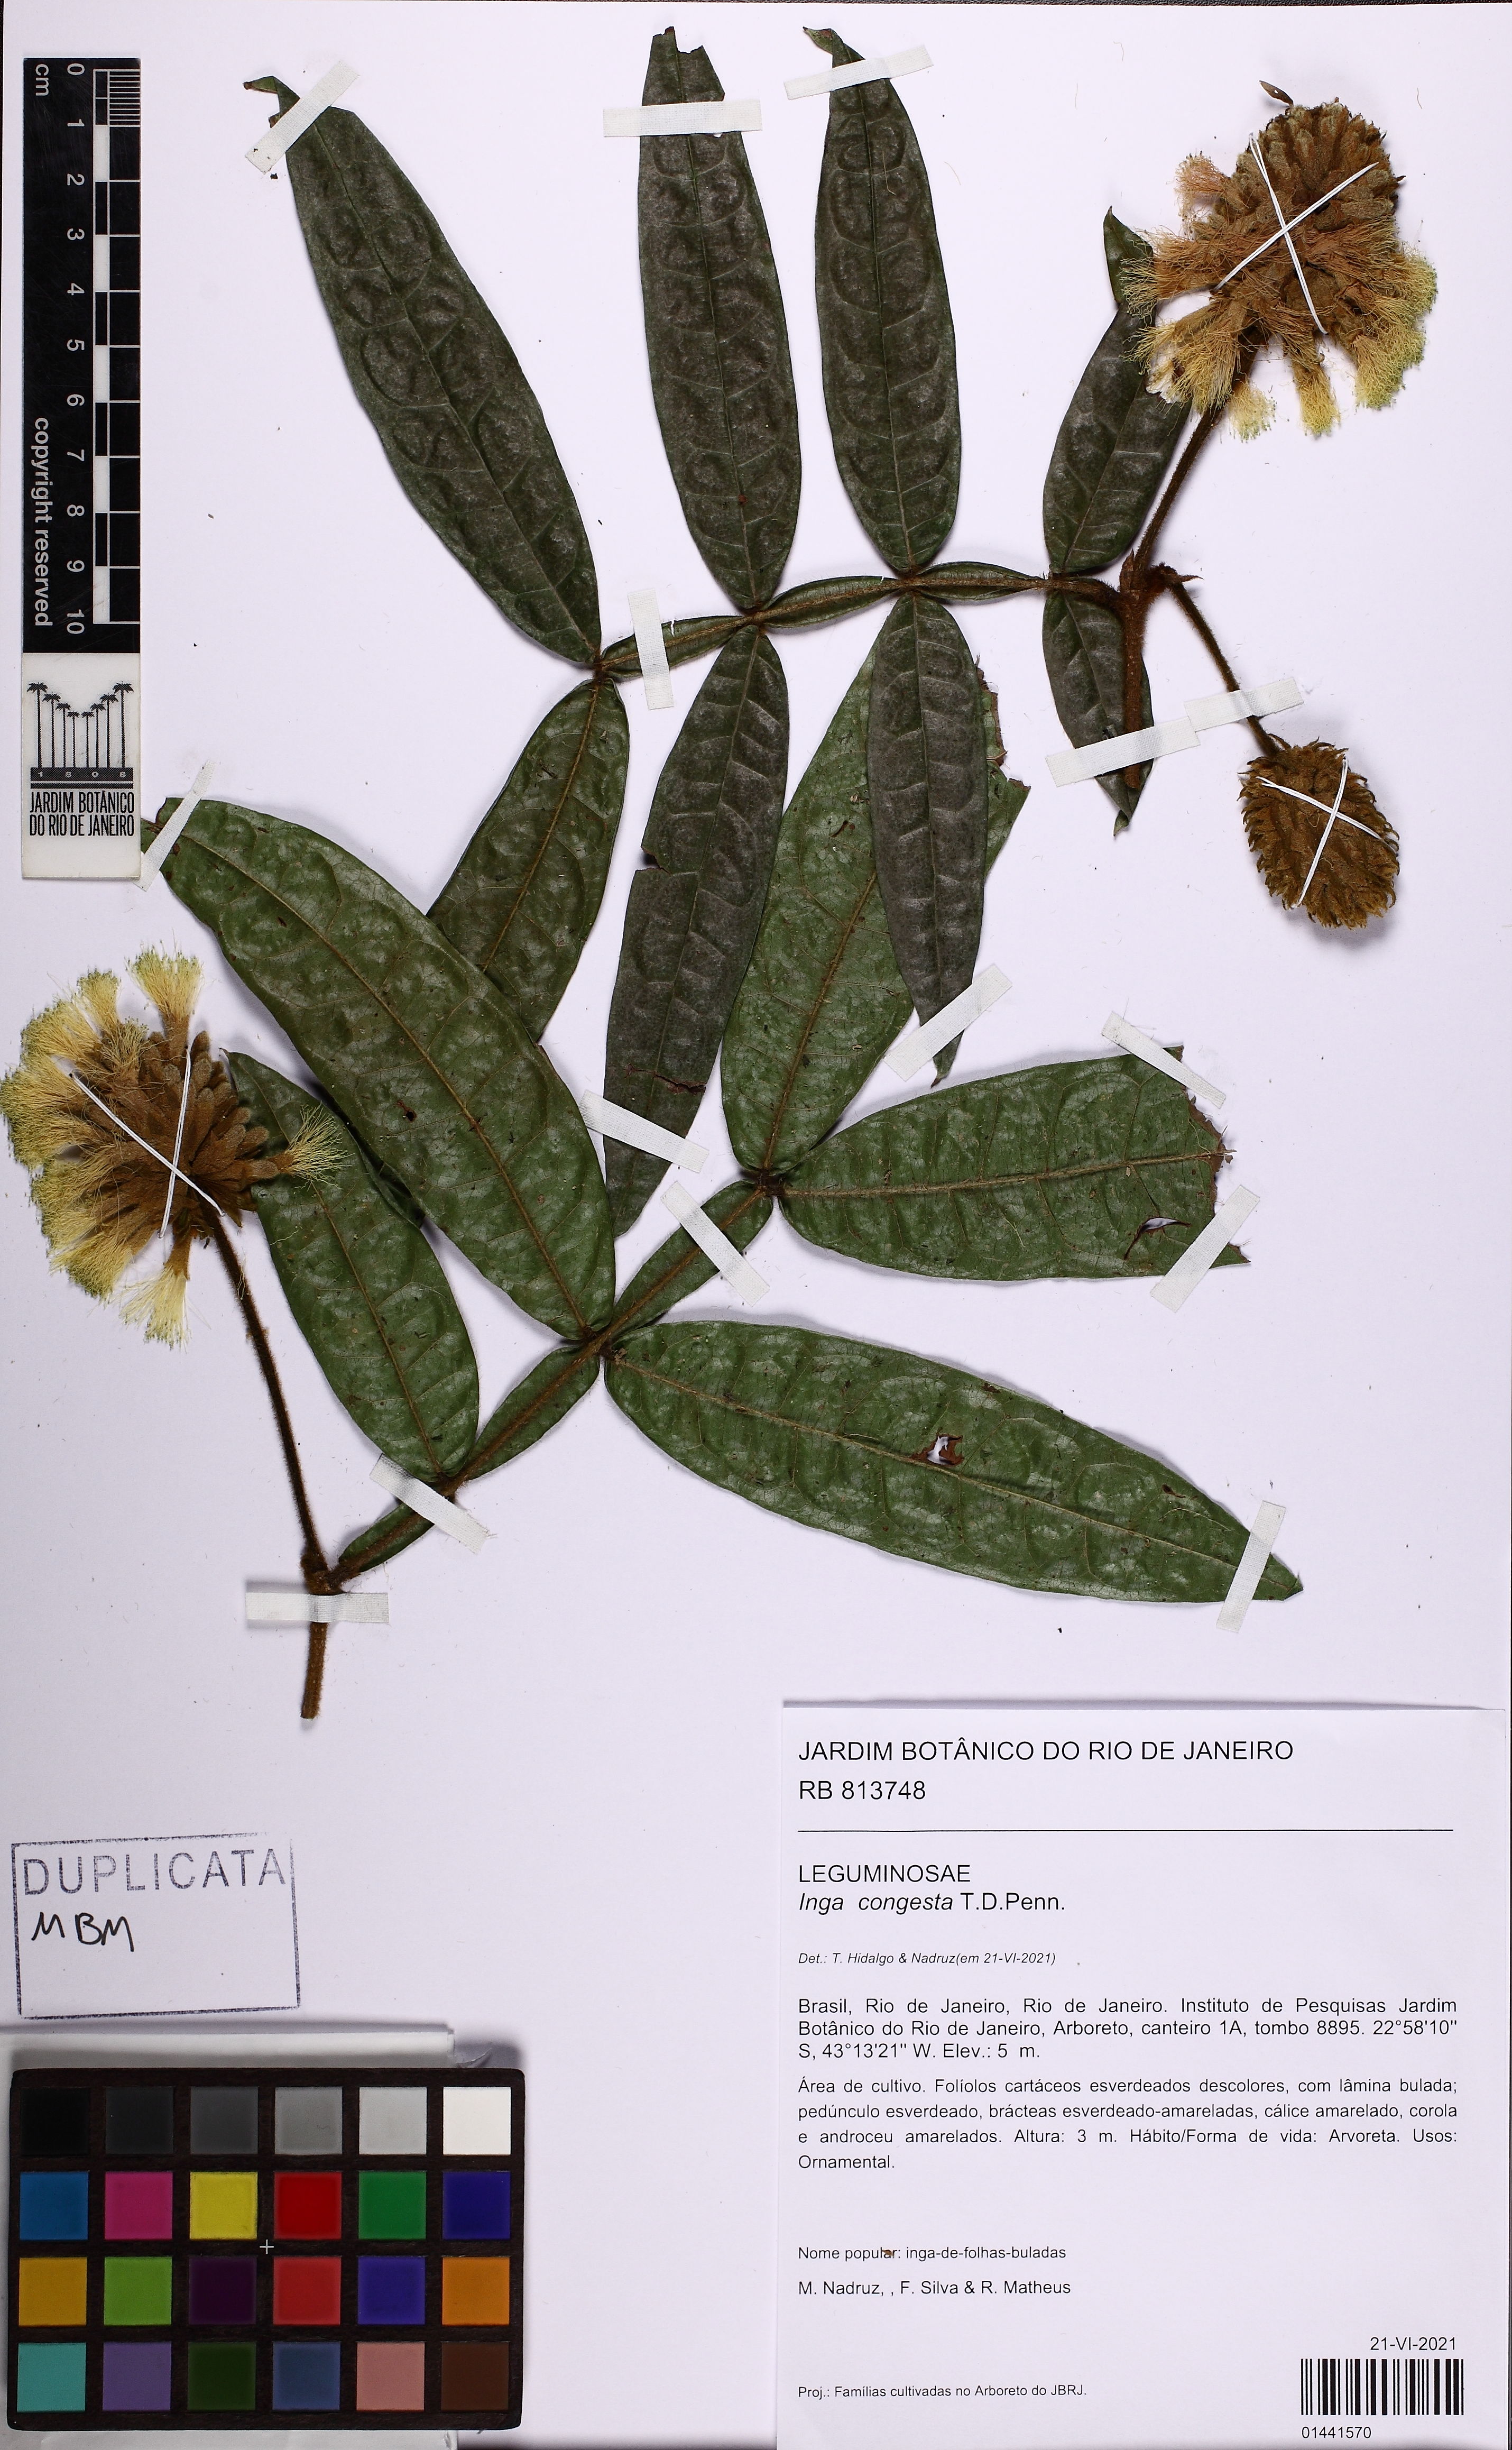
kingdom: Plantae
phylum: Tracheophyta
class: Magnoliopsida
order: Fabales
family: Fabaceae
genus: Inga
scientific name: Inga congesta
